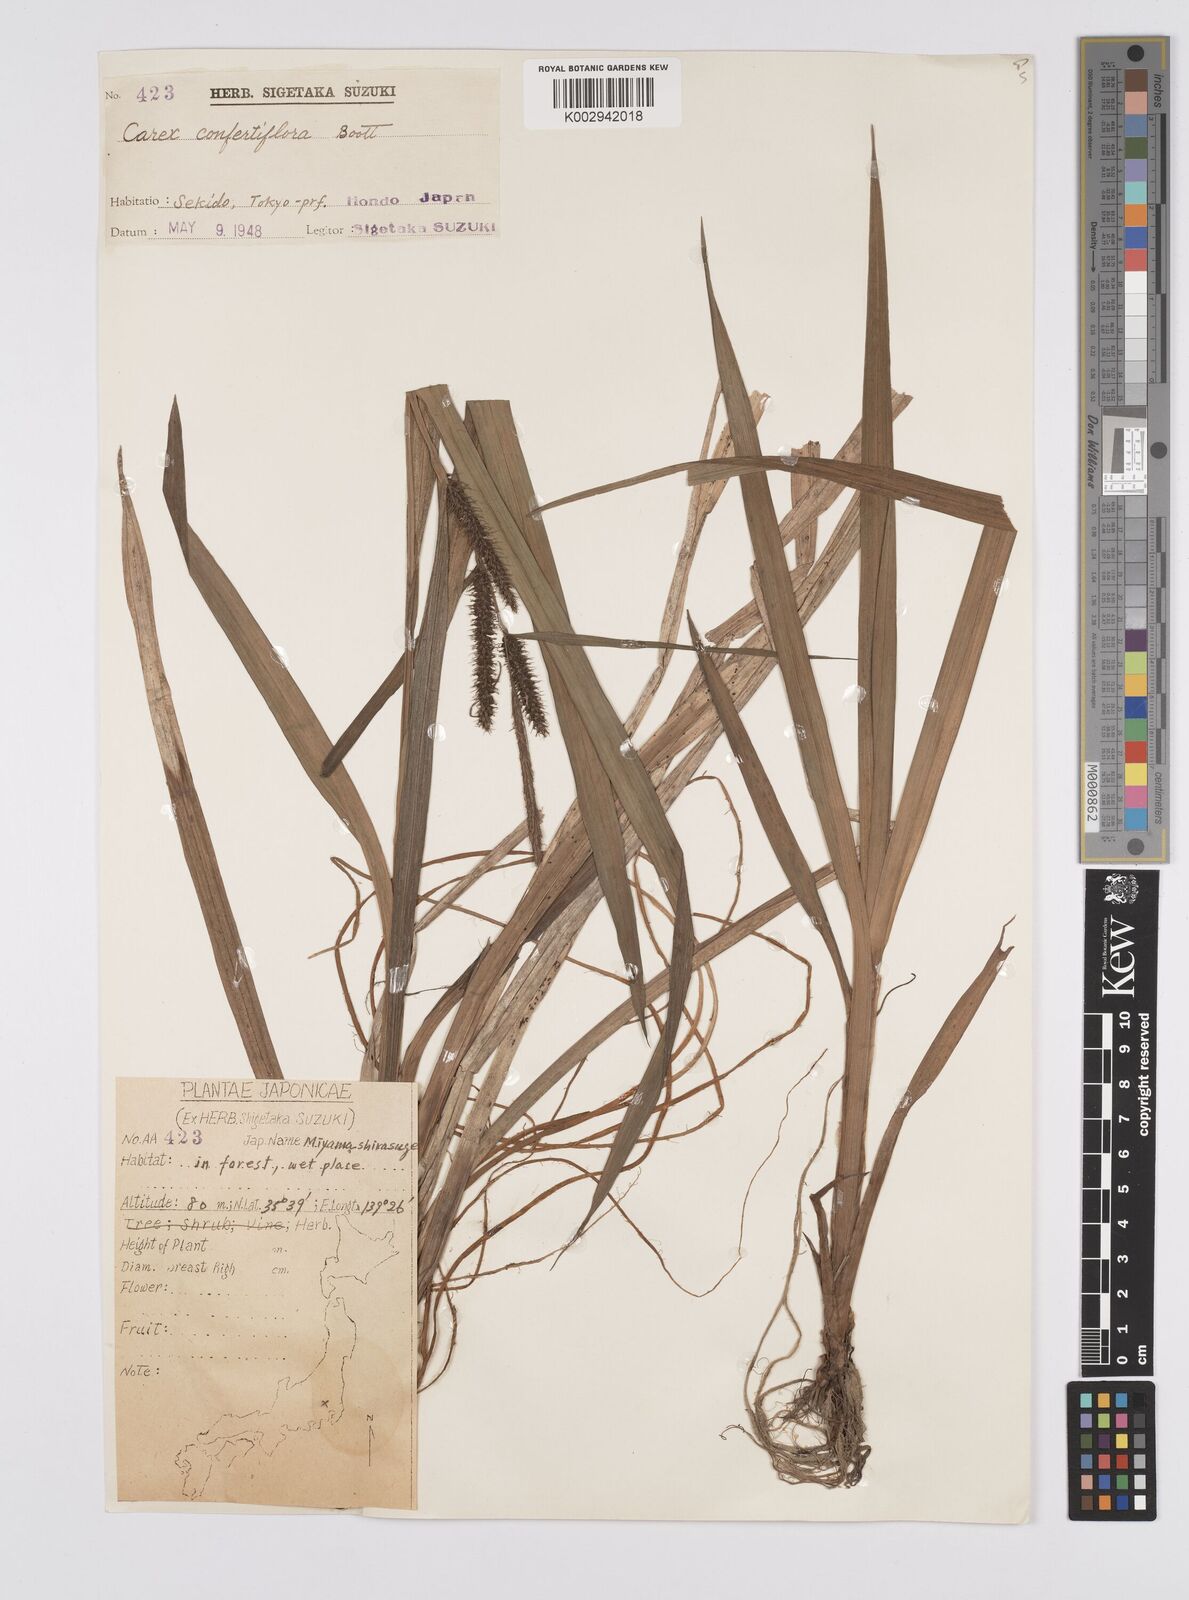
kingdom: Plantae
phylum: Tracheophyta
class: Liliopsida
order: Poales
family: Cyperaceae
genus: Carex
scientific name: Carex olivacea
